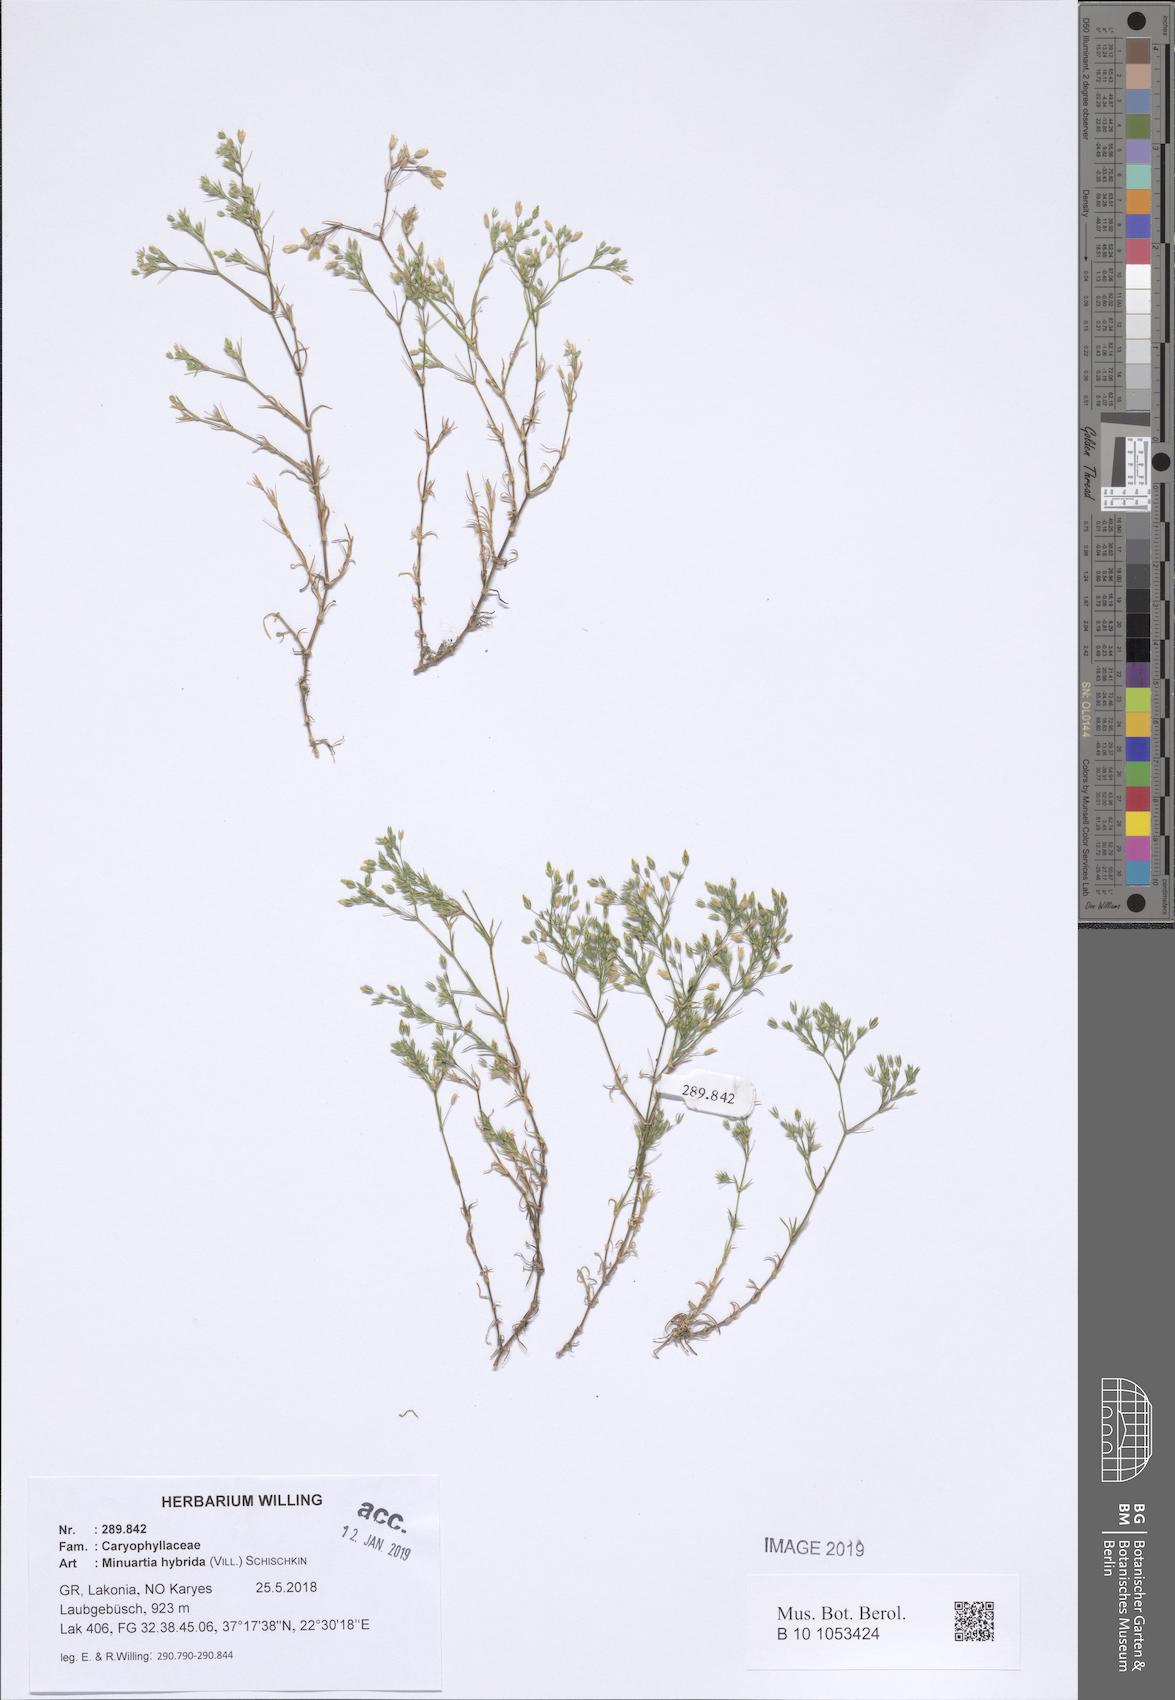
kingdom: Plantae
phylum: Tracheophyta
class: Magnoliopsida
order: Caryophyllales
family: Caryophyllaceae
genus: Sabulina
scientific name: Sabulina tenuifolia
